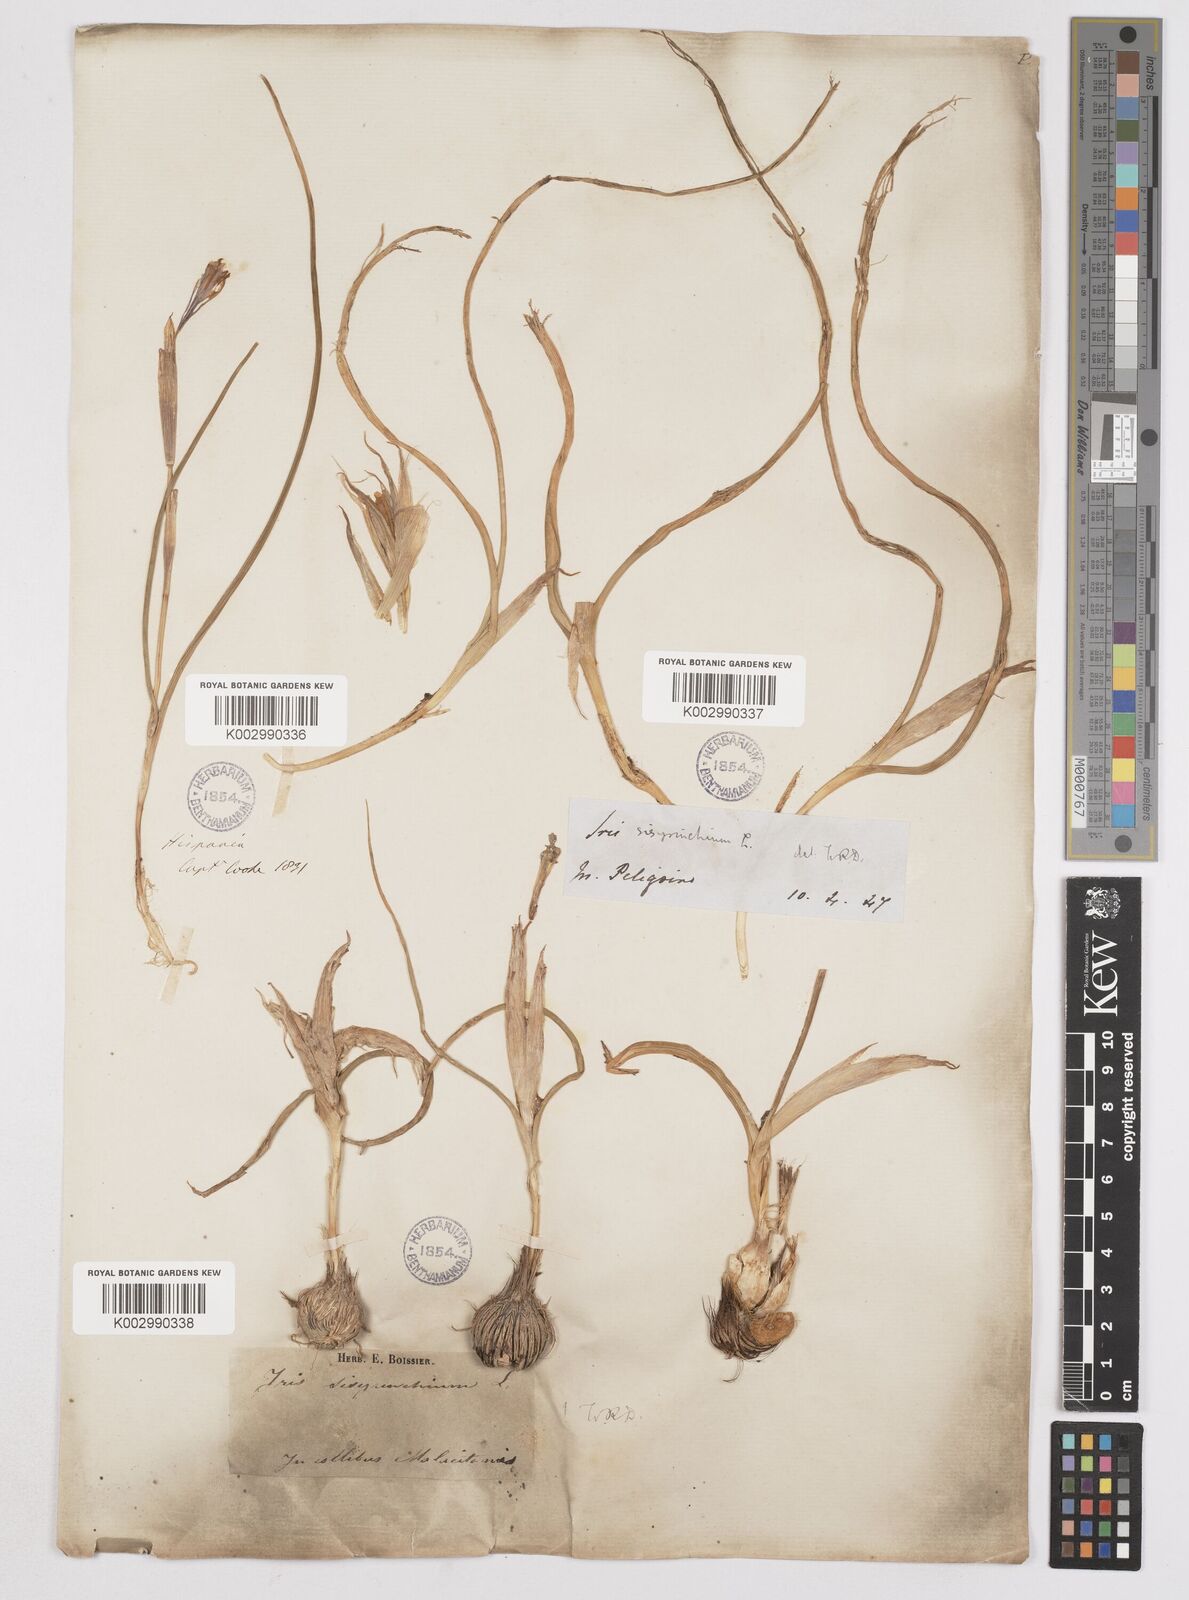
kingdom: Plantae
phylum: Tracheophyta
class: Liliopsida
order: Asparagales
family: Iridaceae
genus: Moraea
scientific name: Moraea sisyrinchium
